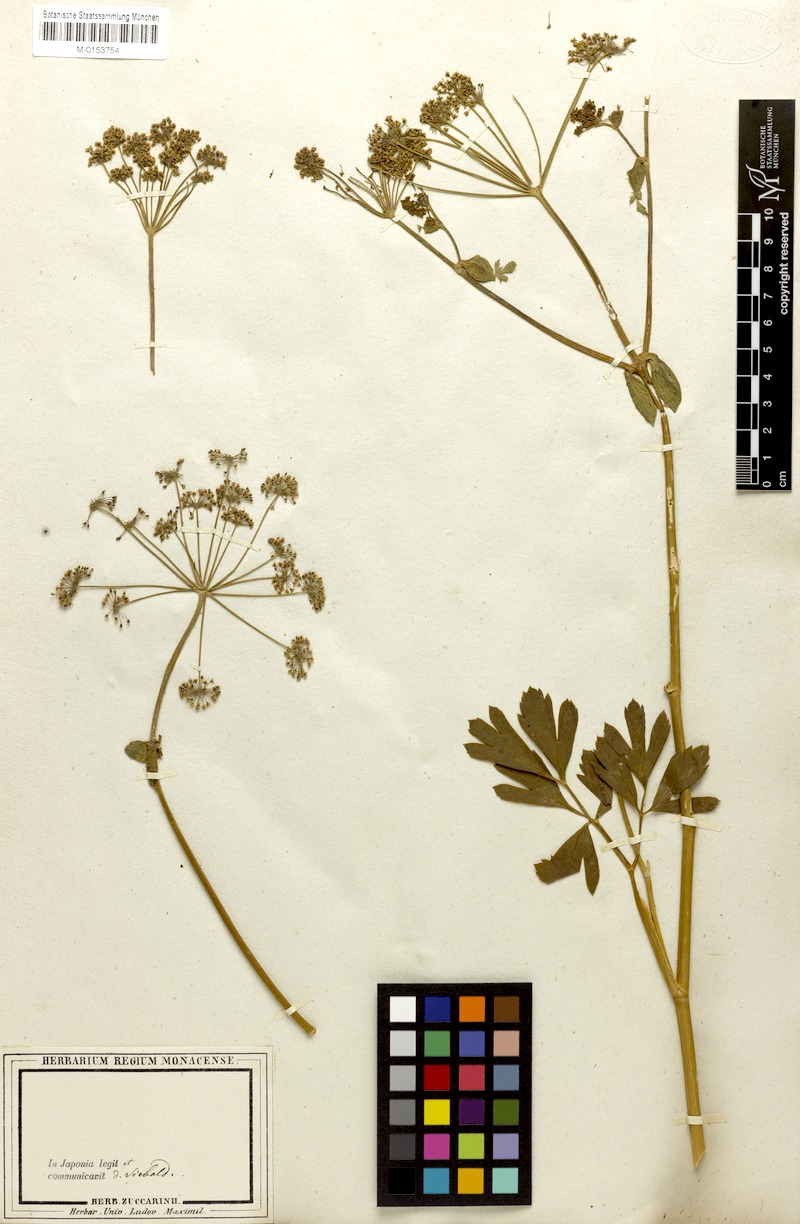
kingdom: Plantae
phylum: Tracheophyta
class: Magnoliopsida
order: Apiales
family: Apiaceae
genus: Peucedanum
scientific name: Peucedanum japonicum
